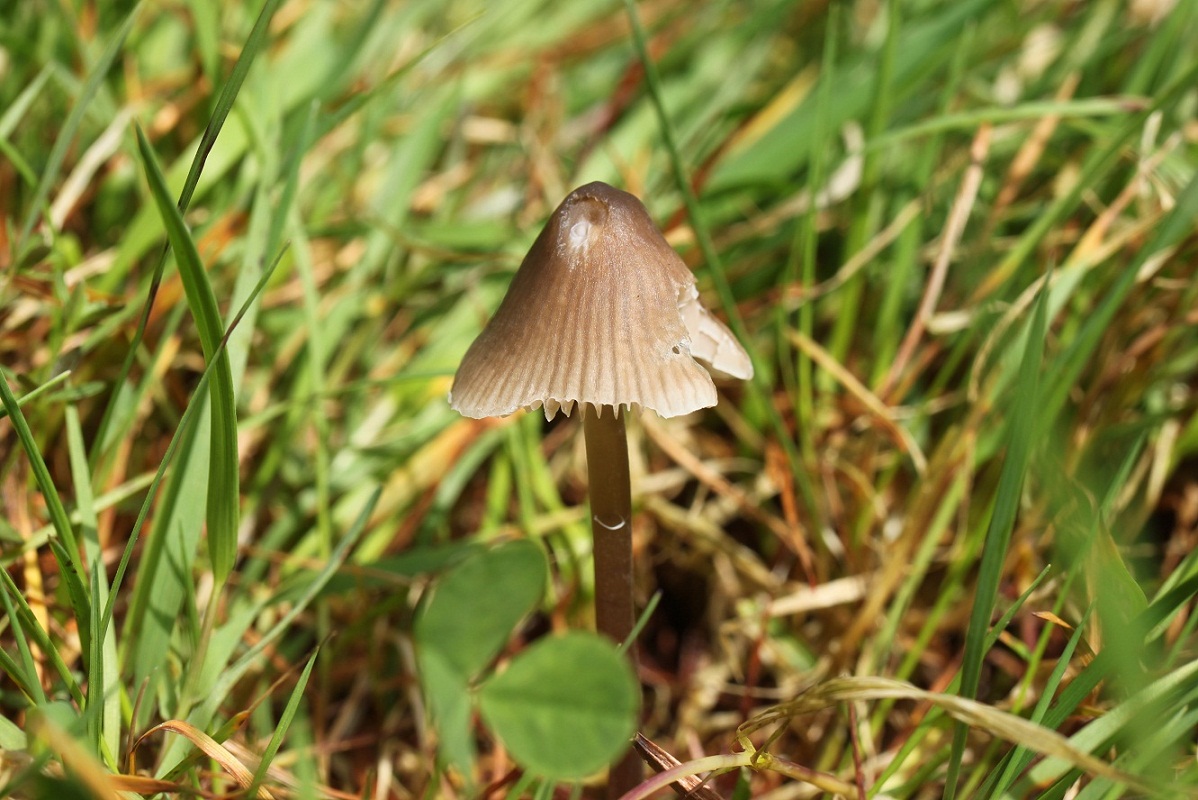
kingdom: Fungi
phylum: Basidiomycota
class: Agaricomycetes
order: Agaricales
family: Mycenaceae
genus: Mycena
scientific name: Mycena abramsii
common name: sommer-huesvamp
